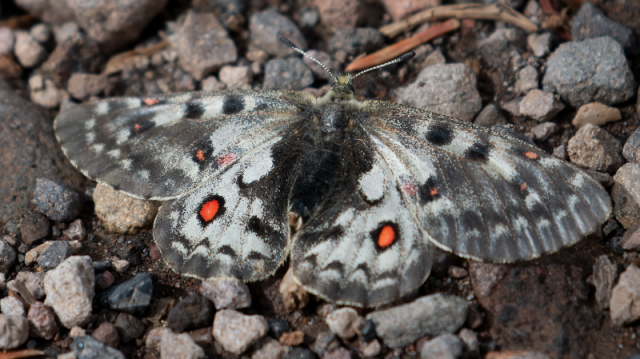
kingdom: Animalia
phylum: Arthropoda
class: Insecta
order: Lepidoptera
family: Papilionidae
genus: Parnassius
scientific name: Parnassius smintheus
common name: Rocky Mountain Parnassian
